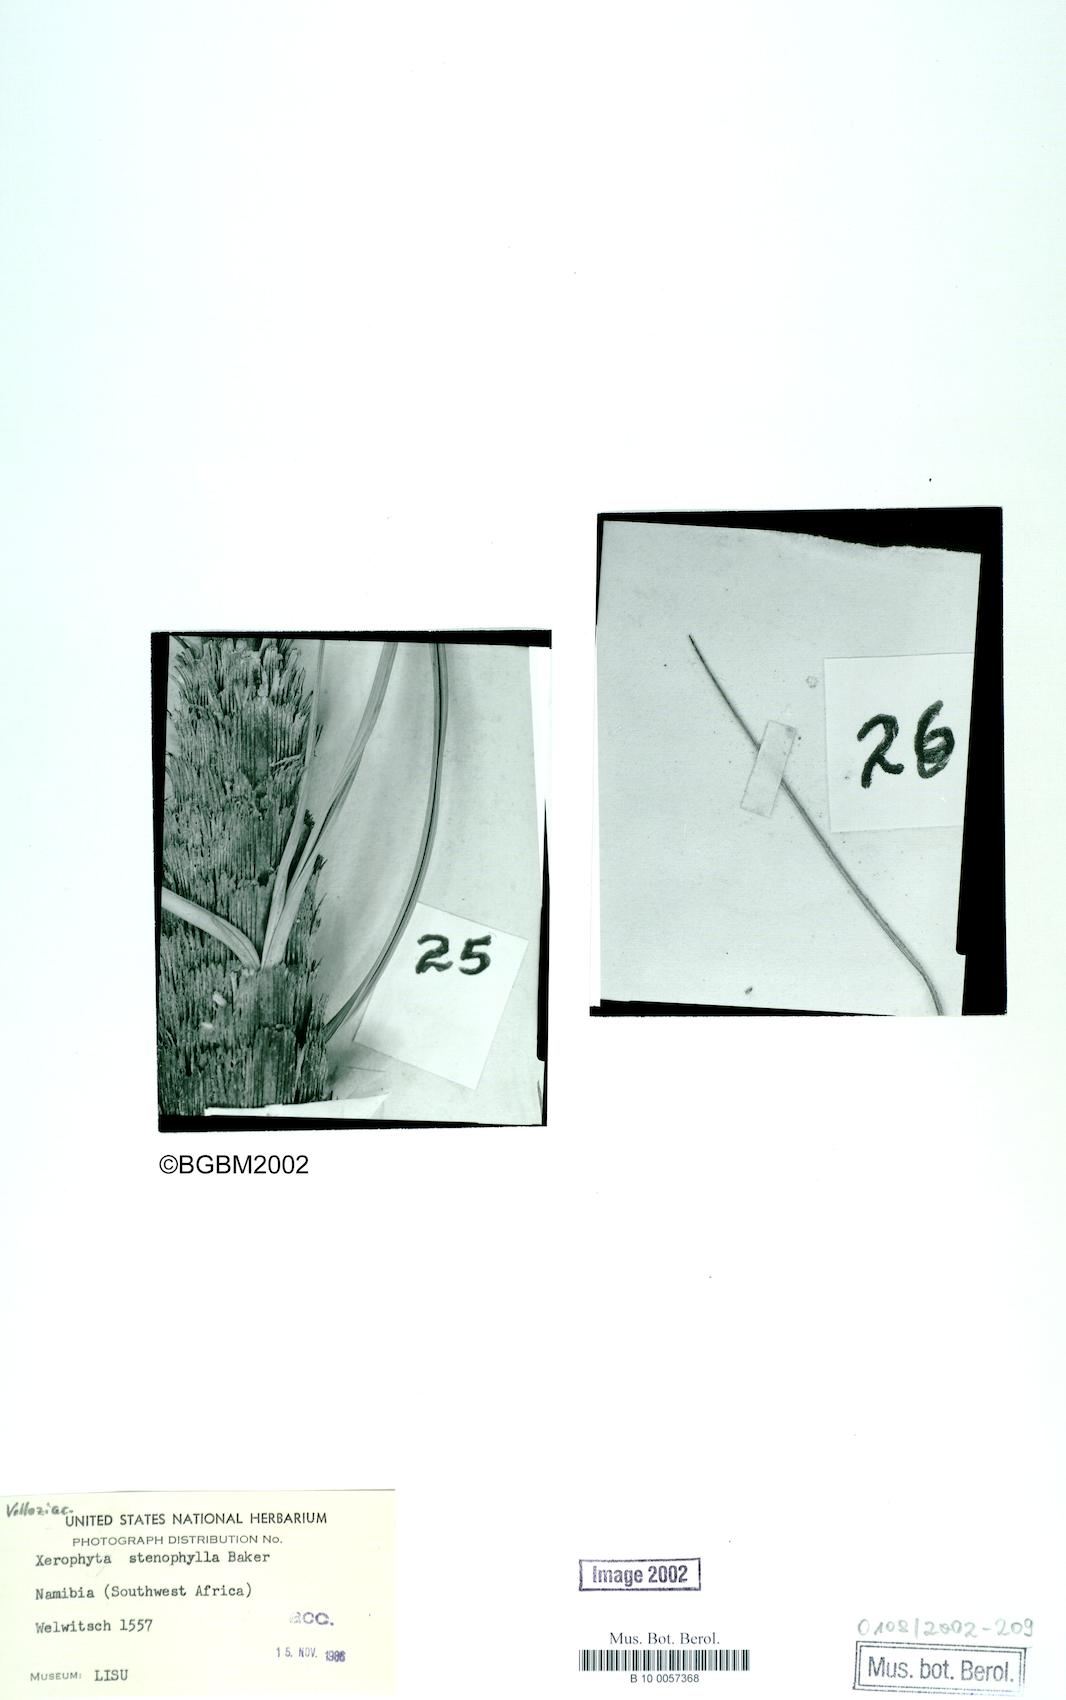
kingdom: Plantae
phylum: Tracheophyta
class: Liliopsida
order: Pandanales
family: Velloziaceae
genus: Xerophyta
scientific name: Xerophyta stenophylla
